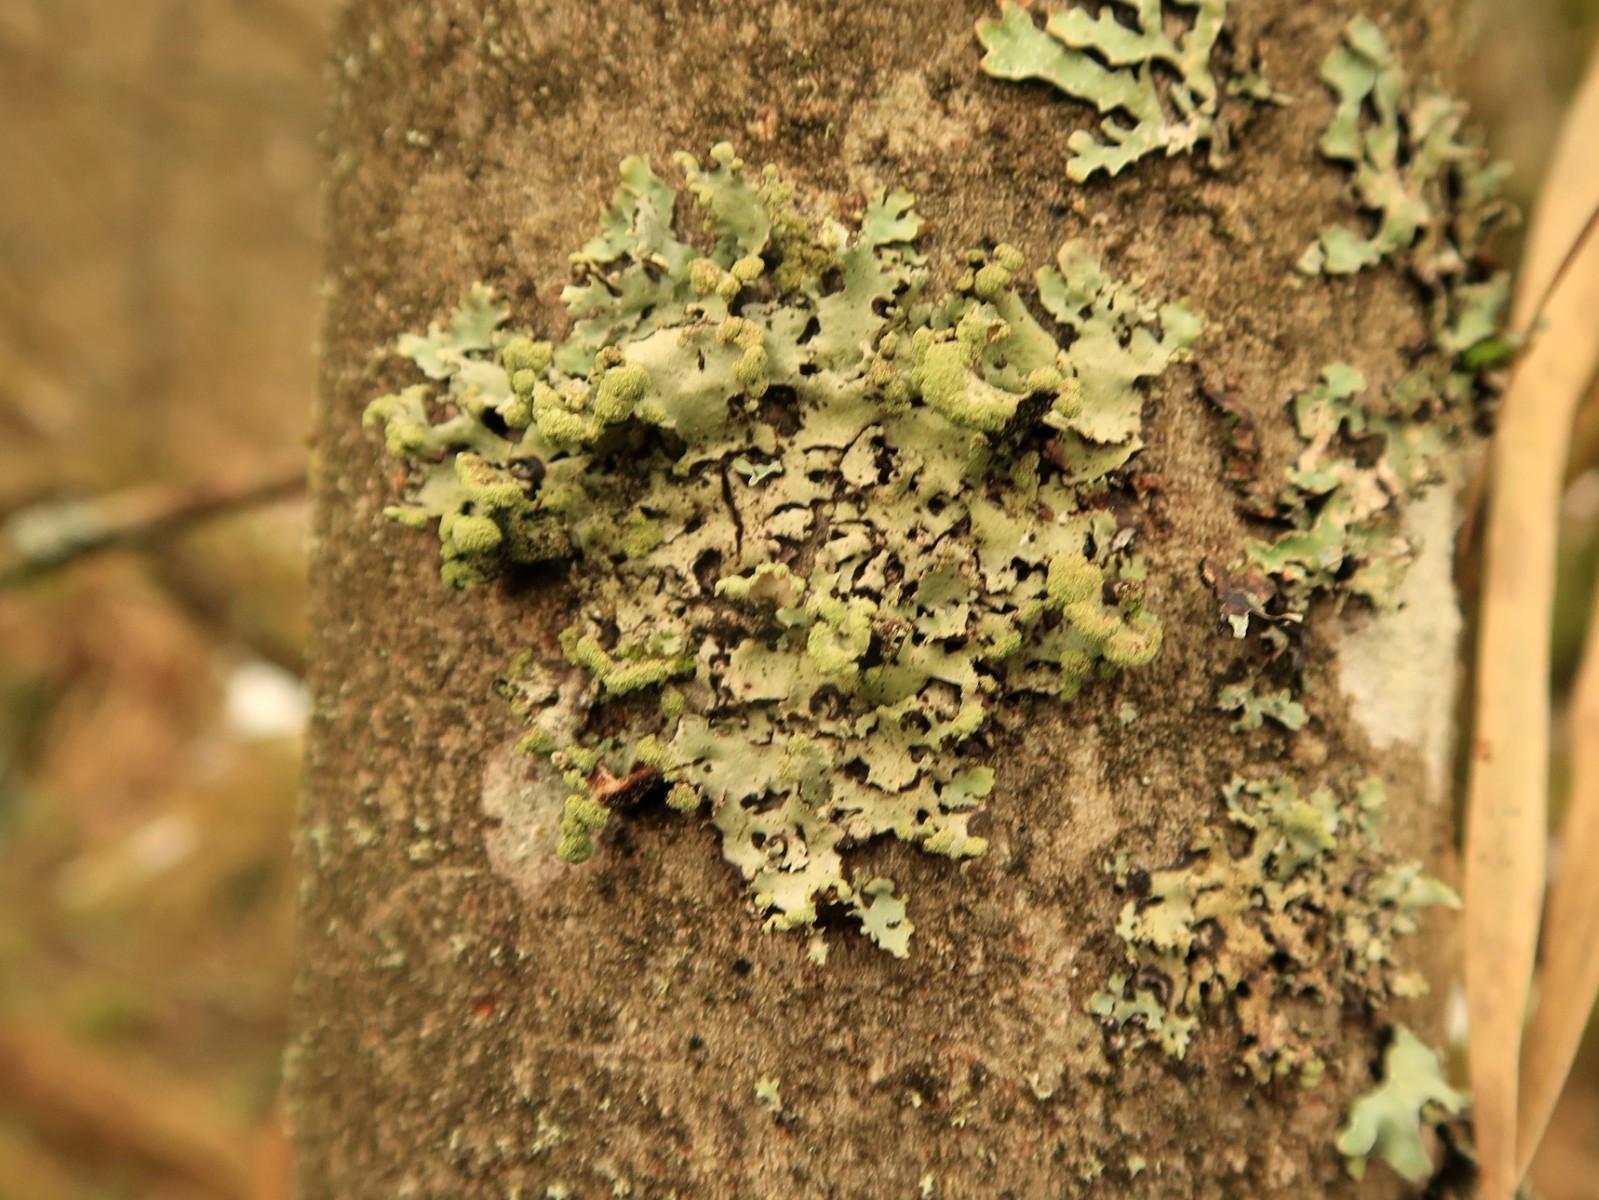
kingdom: Fungi
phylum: Ascomycota
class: Lecanoromycetes
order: Lecanorales
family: Parmeliaceae
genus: Hypotrachyna
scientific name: Hypotrachyna revoluta
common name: bleggrå skållav
